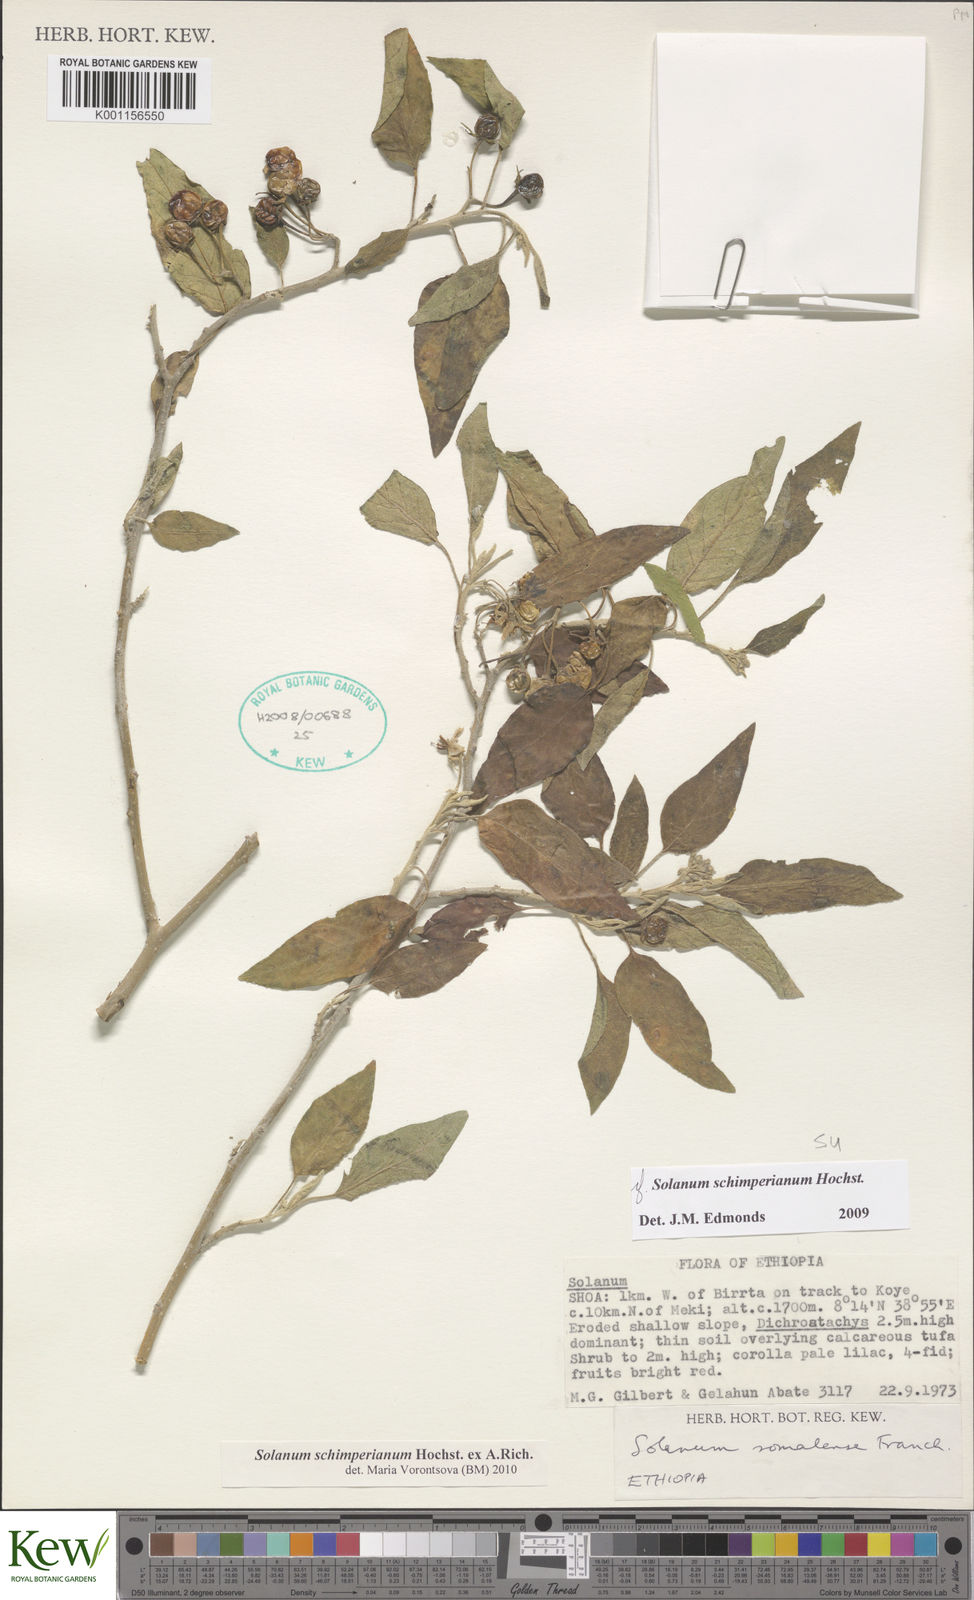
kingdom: Plantae
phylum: Tracheophyta
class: Magnoliopsida
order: Solanales
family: Solanaceae
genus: Solanum
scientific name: Solanum
